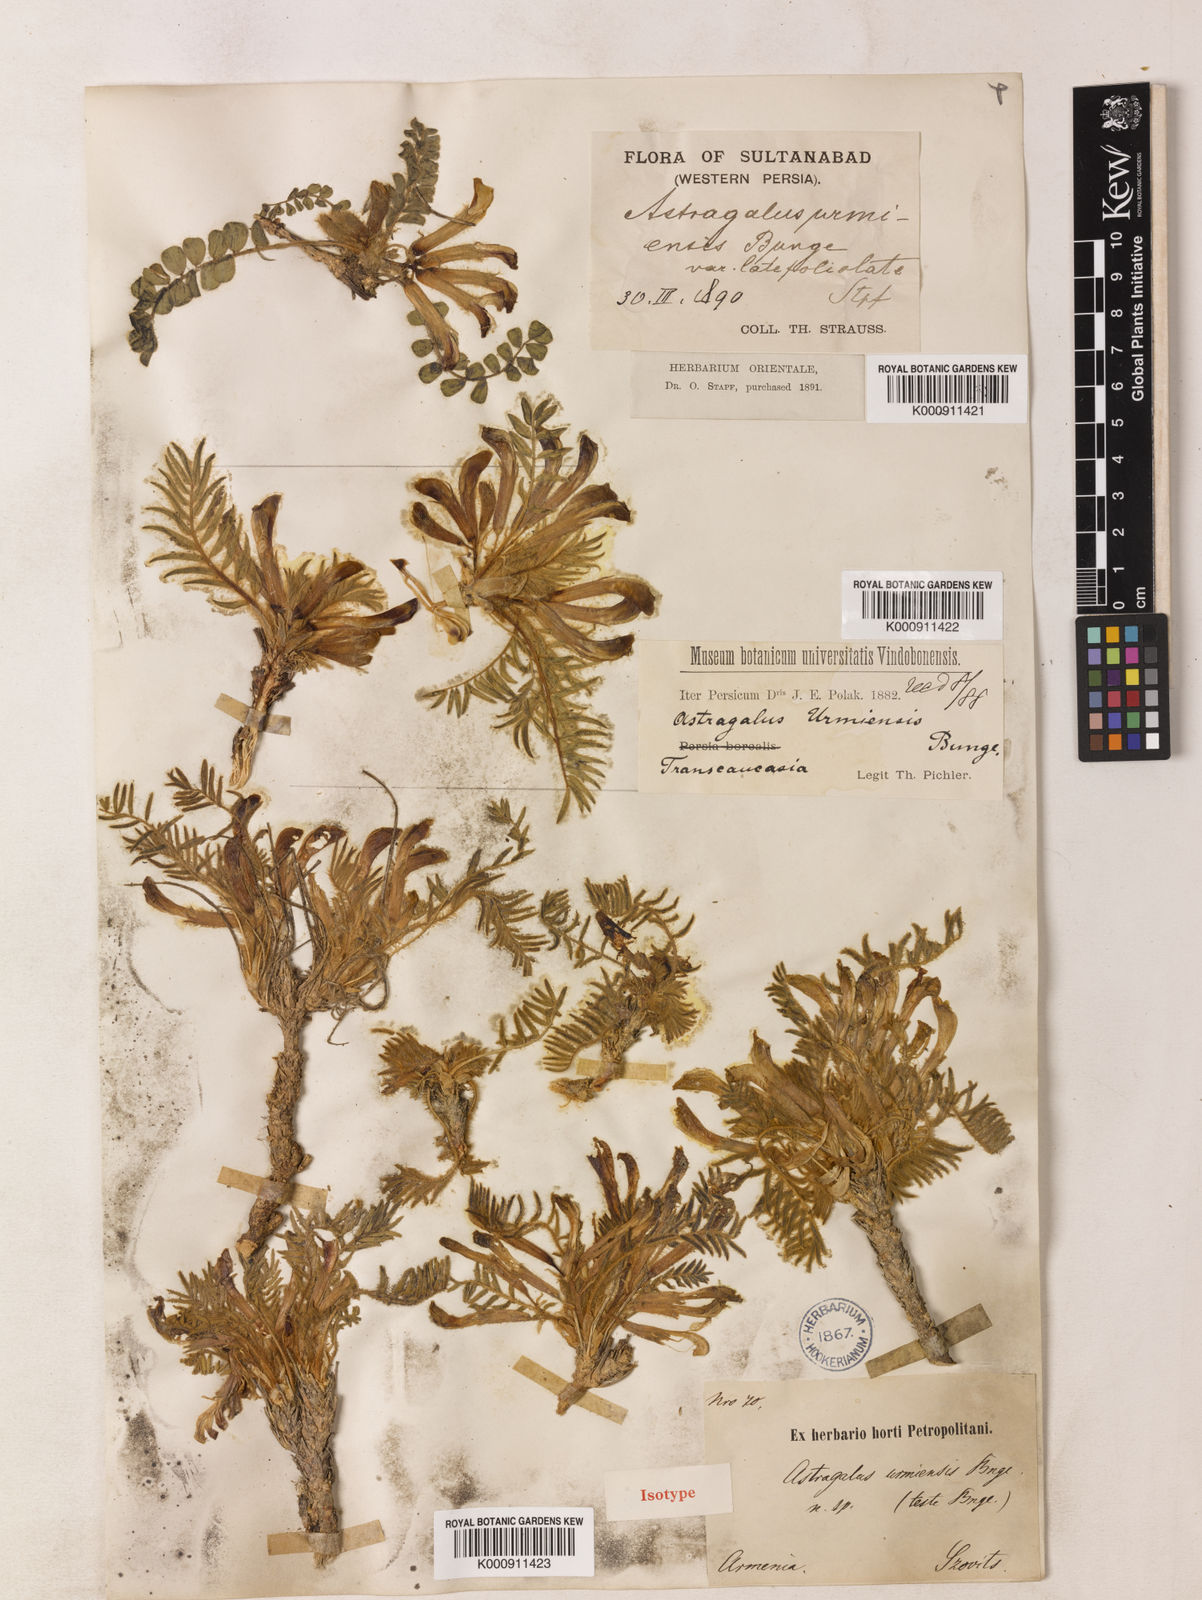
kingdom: Plantae
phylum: Tracheophyta
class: Magnoliopsida
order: Fabales
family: Fabaceae
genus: Astragalus
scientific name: Astragalus urmiensis
